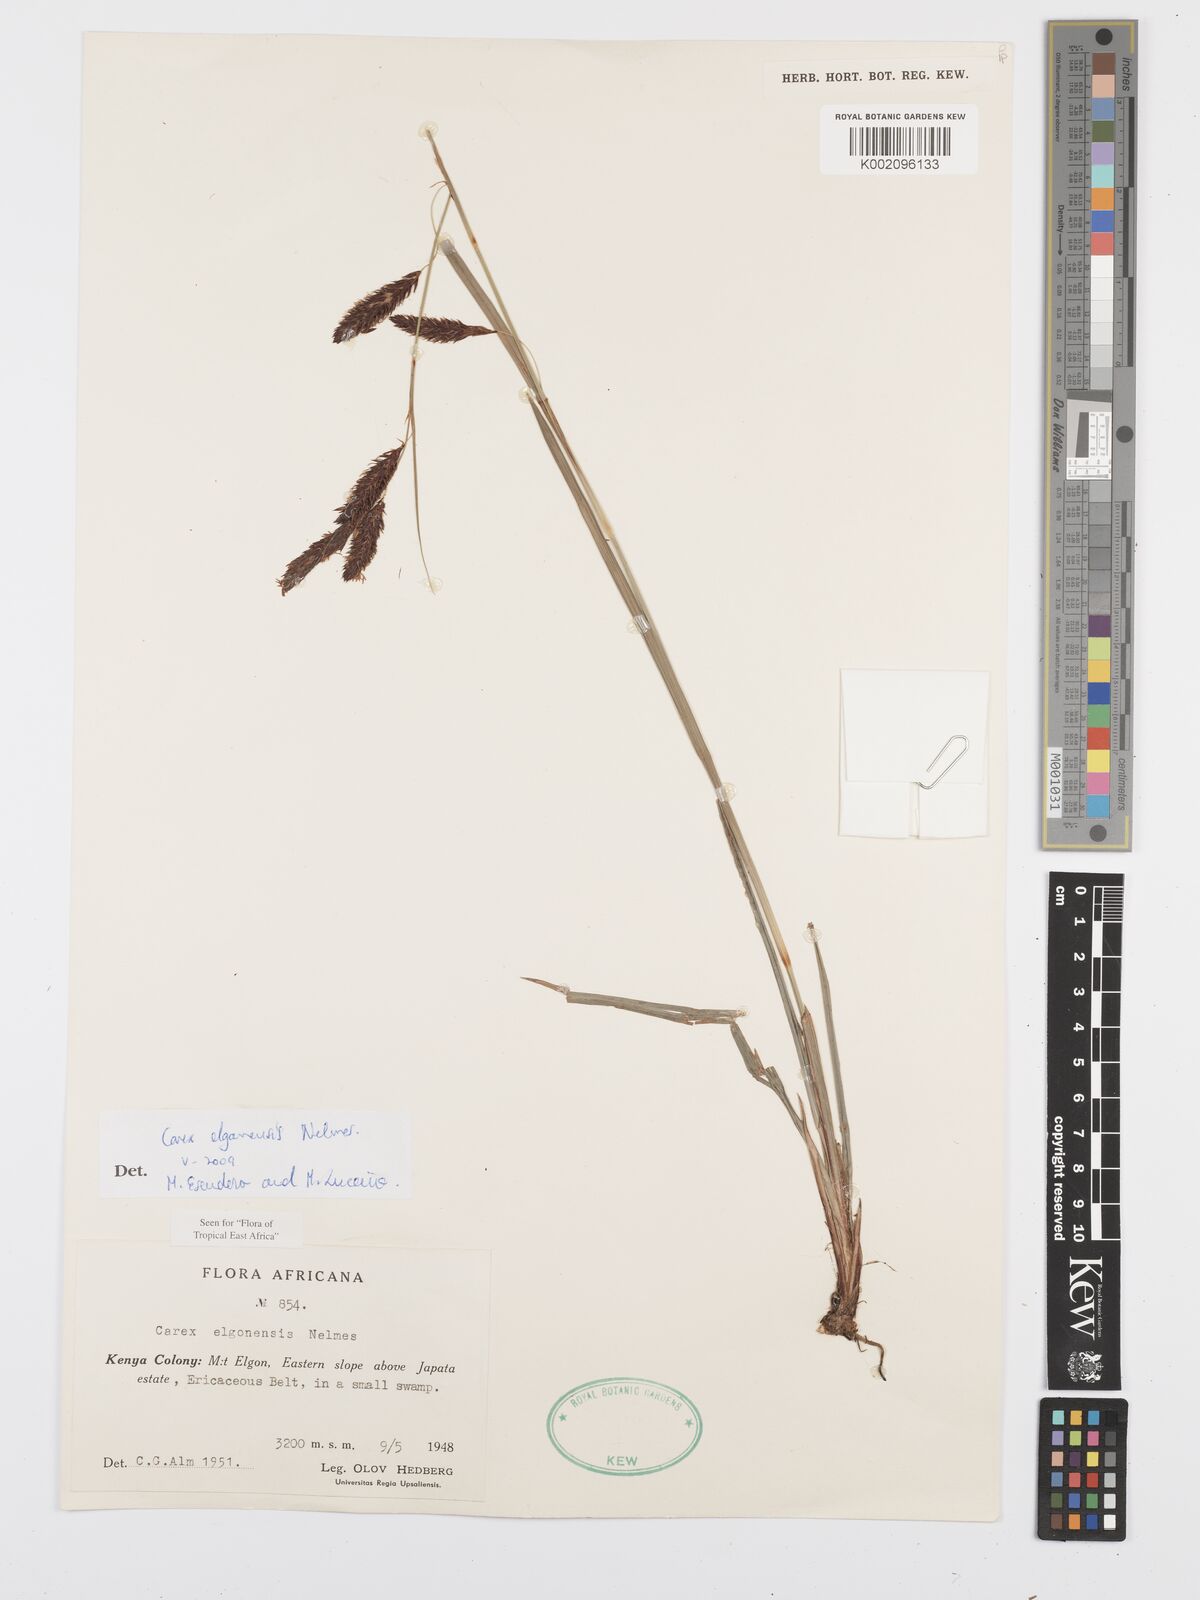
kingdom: Plantae
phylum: Tracheophyta
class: Liliopsida
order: Poales
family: Cyperaceae
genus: Carex
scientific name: Carex elgonensis
